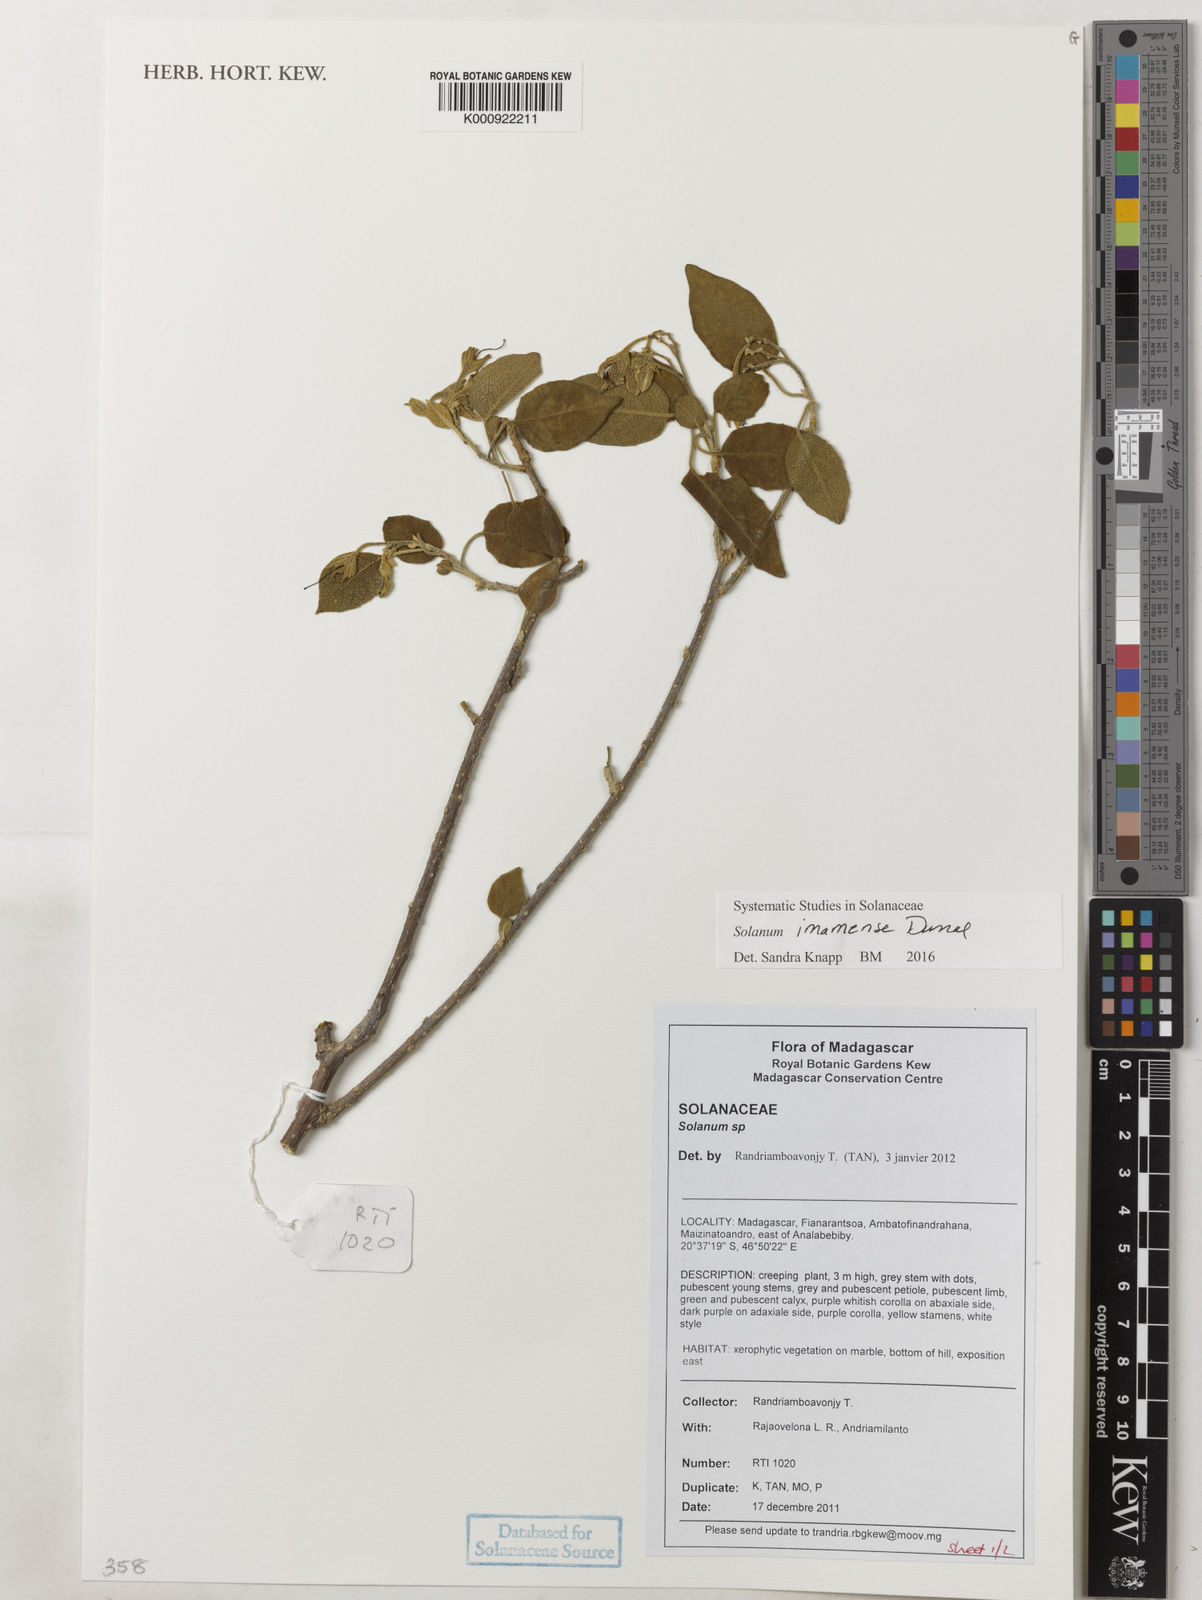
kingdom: Plantae
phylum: Tracheophyta
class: Magnoliopsida
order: Solanales
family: Solanaceae
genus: Solanum
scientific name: Solanum imamense
